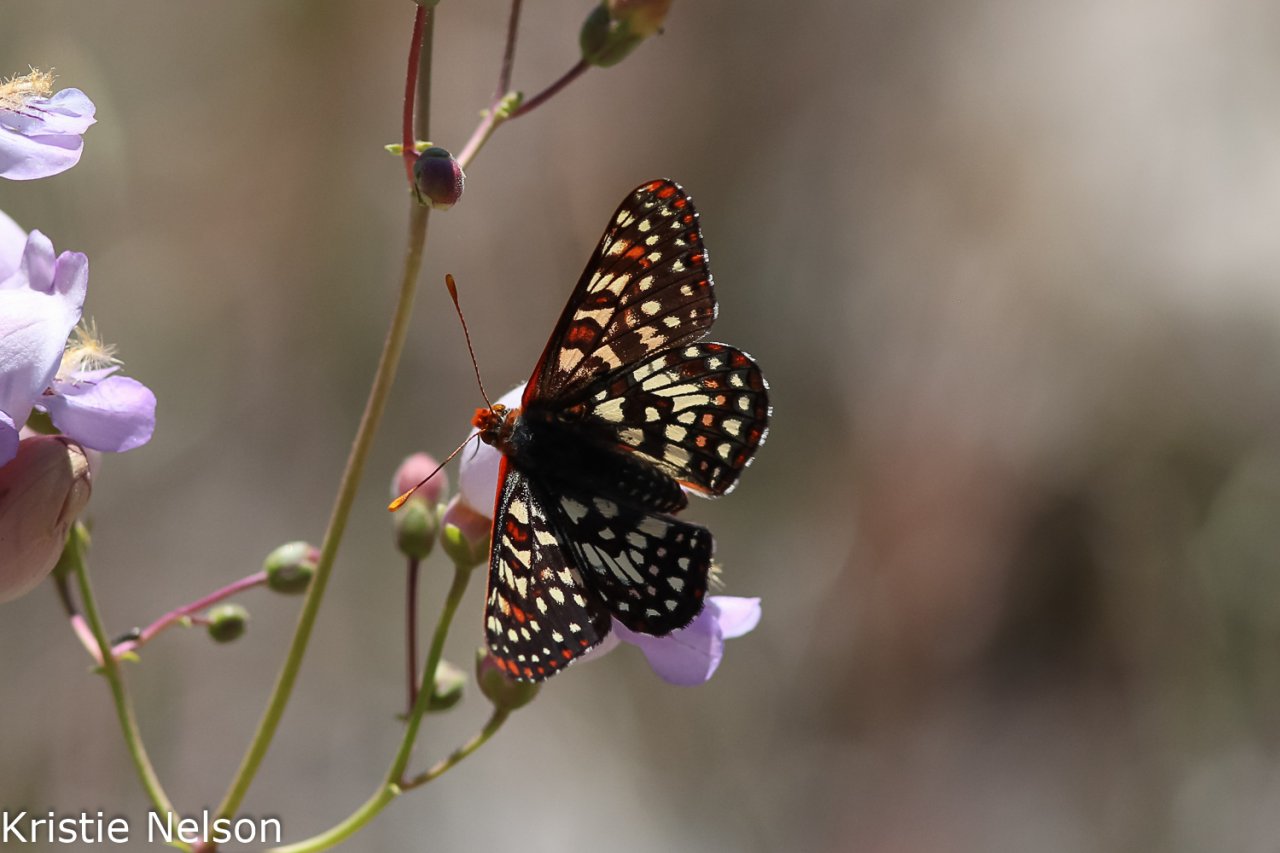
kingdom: Animalia
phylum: Arthropoda
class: Insecta
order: Lepidoptera
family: Nymphalidae
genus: Occidryas
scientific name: Occidryas chalcedona
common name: Chalcedon Checkerspot
